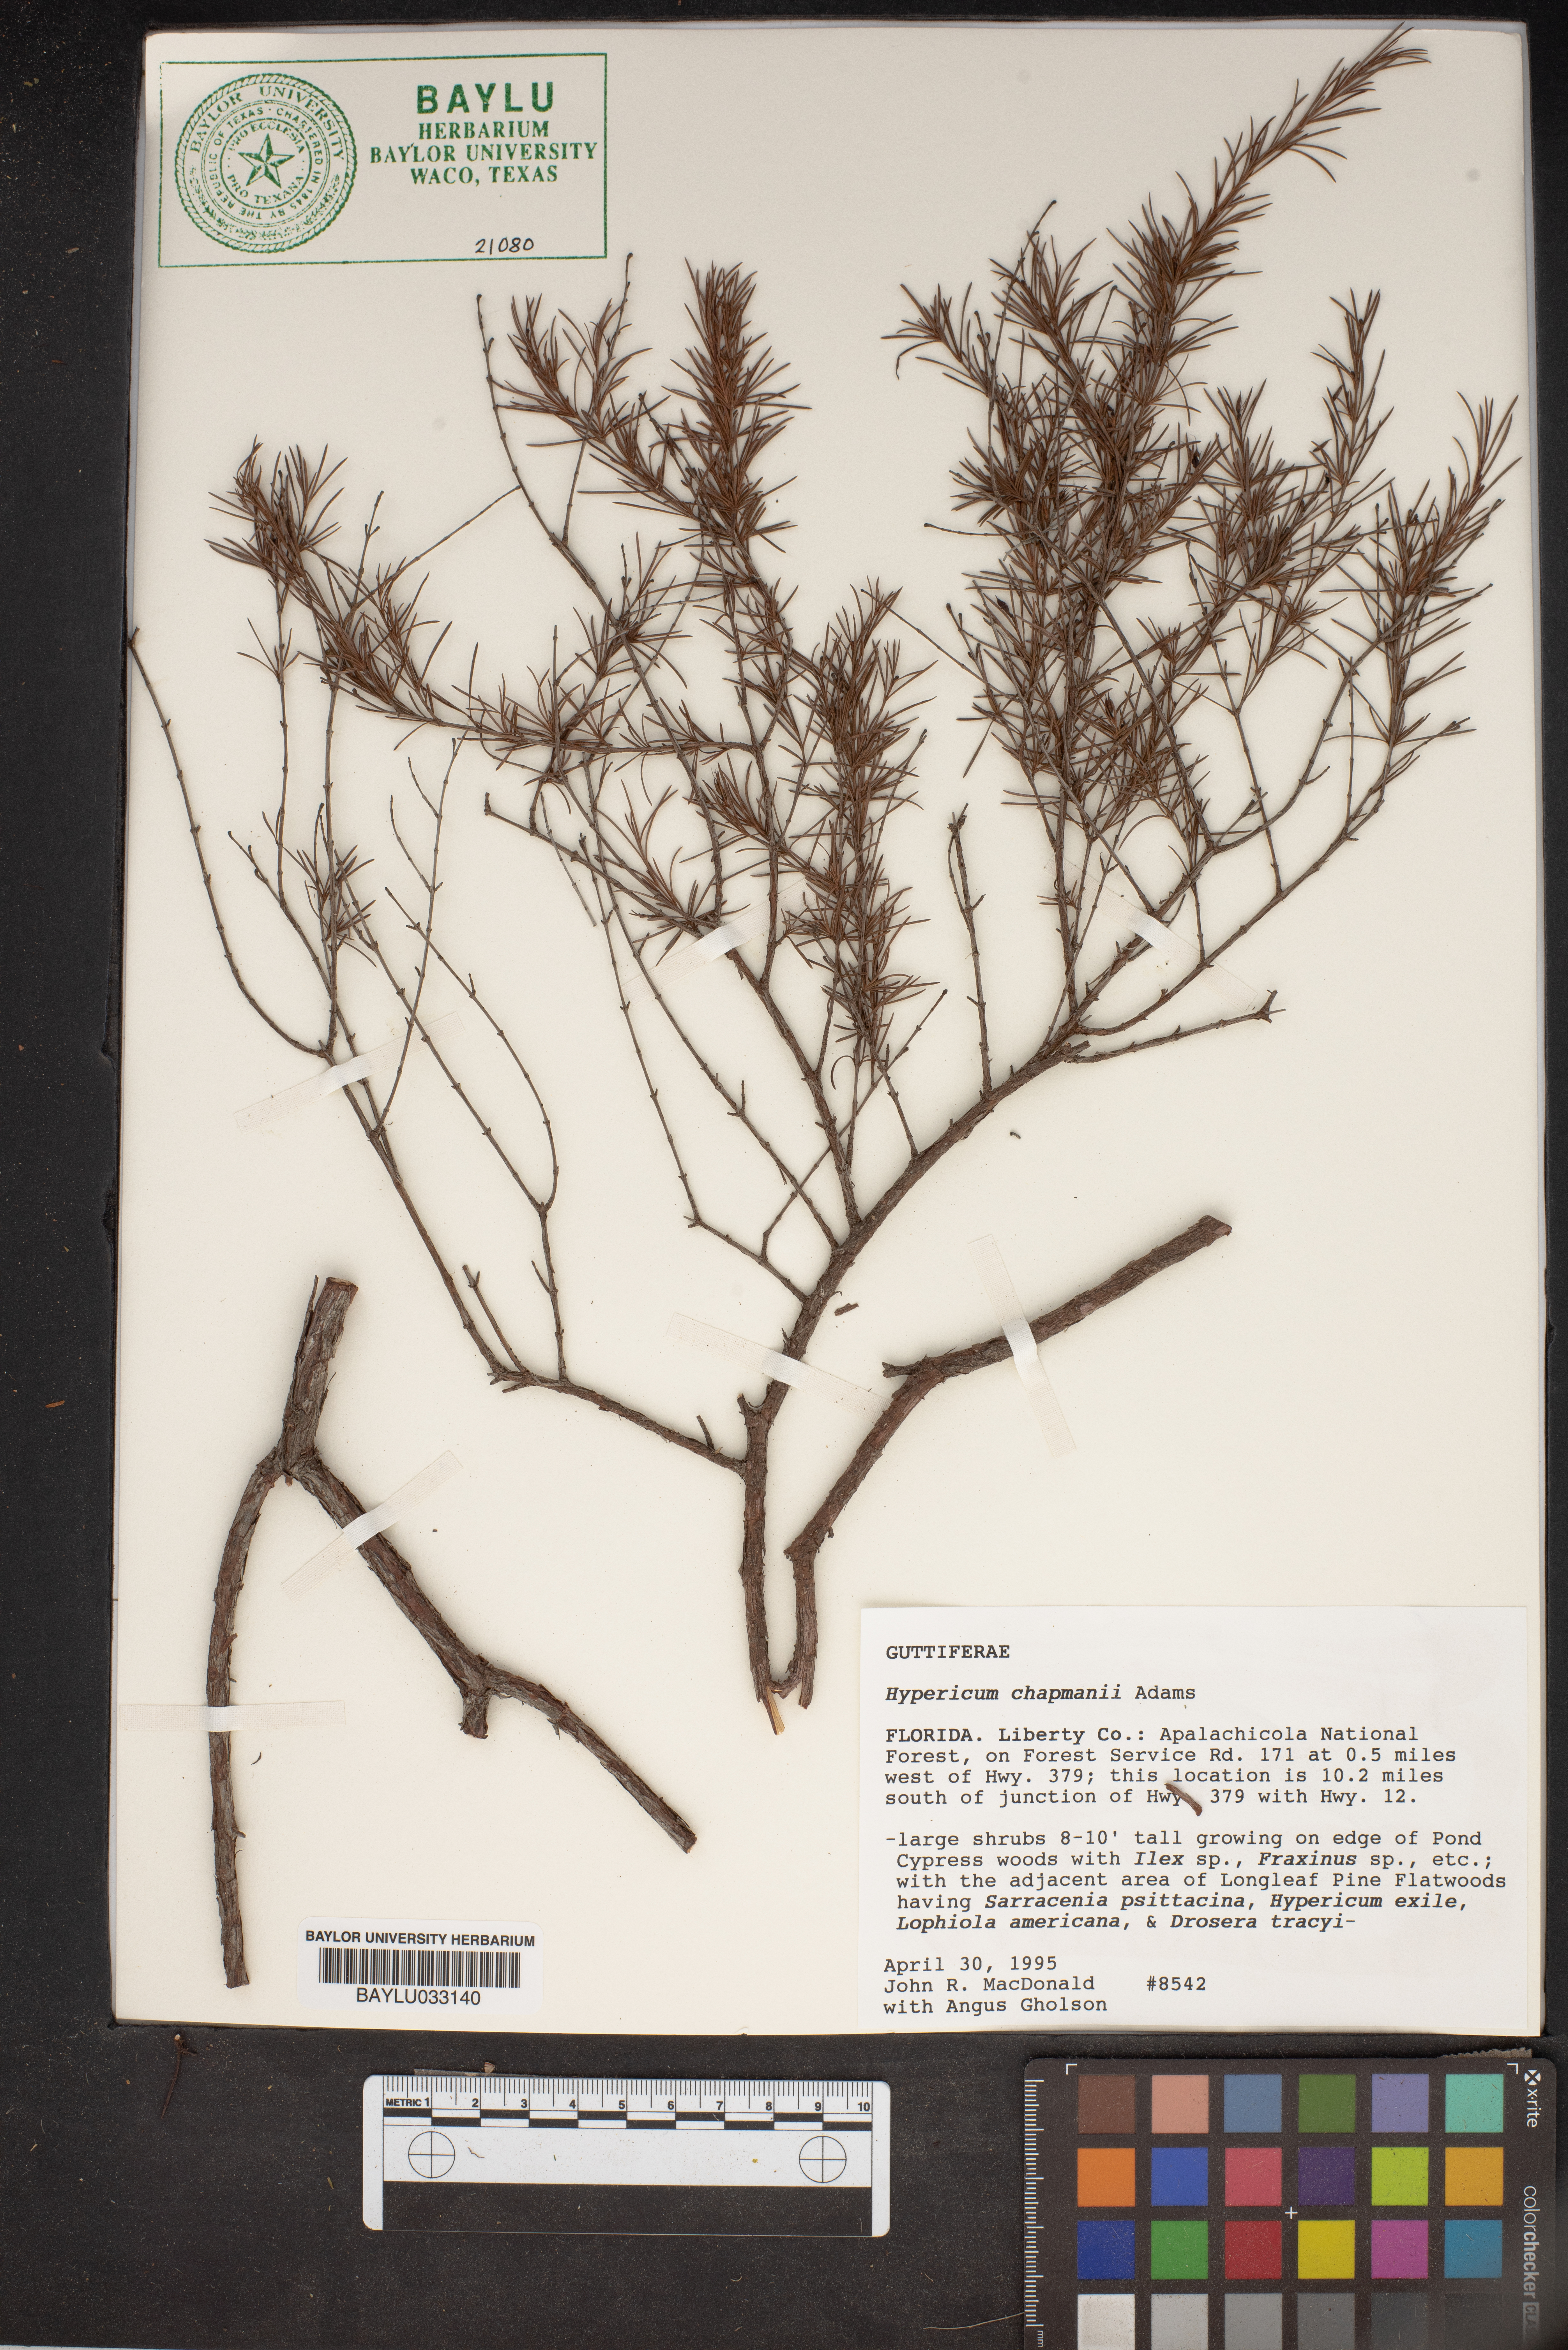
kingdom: Plantae
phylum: Tracheophyta
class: Magnoliopsida
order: Malpighiales
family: Hypericaceae
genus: Hypericum
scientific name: Hypericum chapmanii
